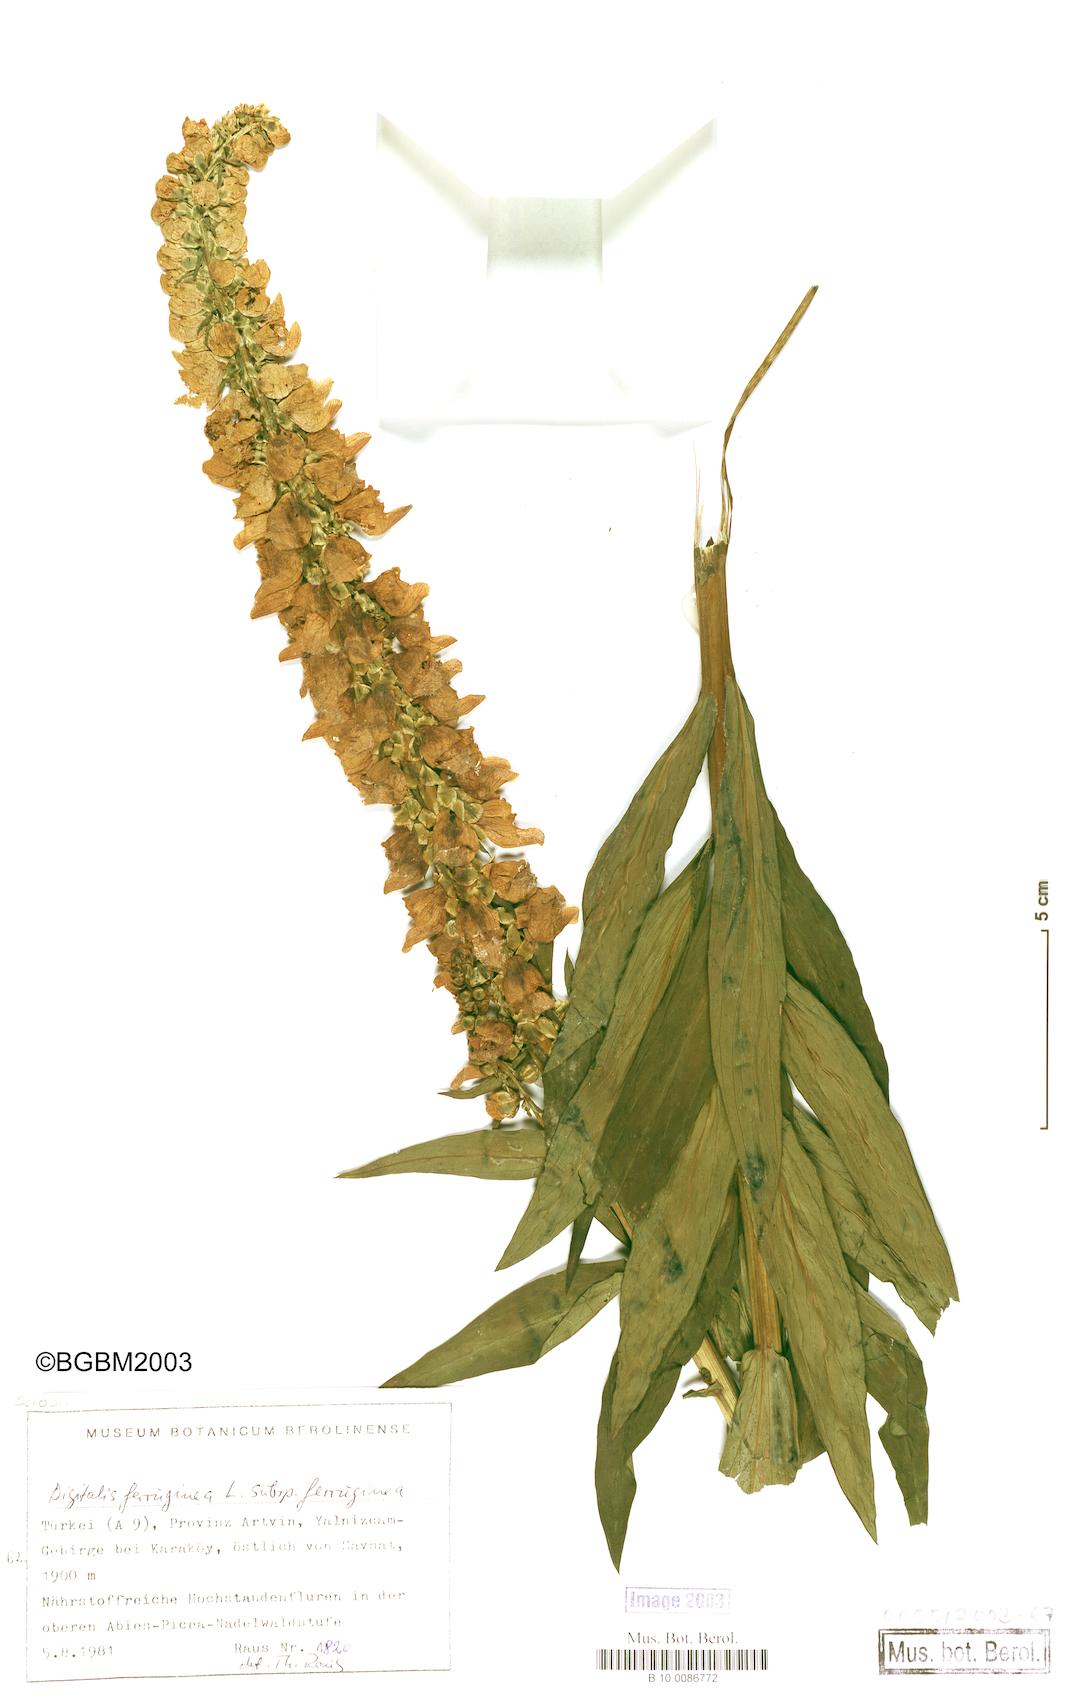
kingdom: Plantae
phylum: Tracheophyta
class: Magnoliopsida
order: Lamiales
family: Plantaginaceae
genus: Digitalis
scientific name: Digitalis ferruginea
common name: Rusty foxglove
